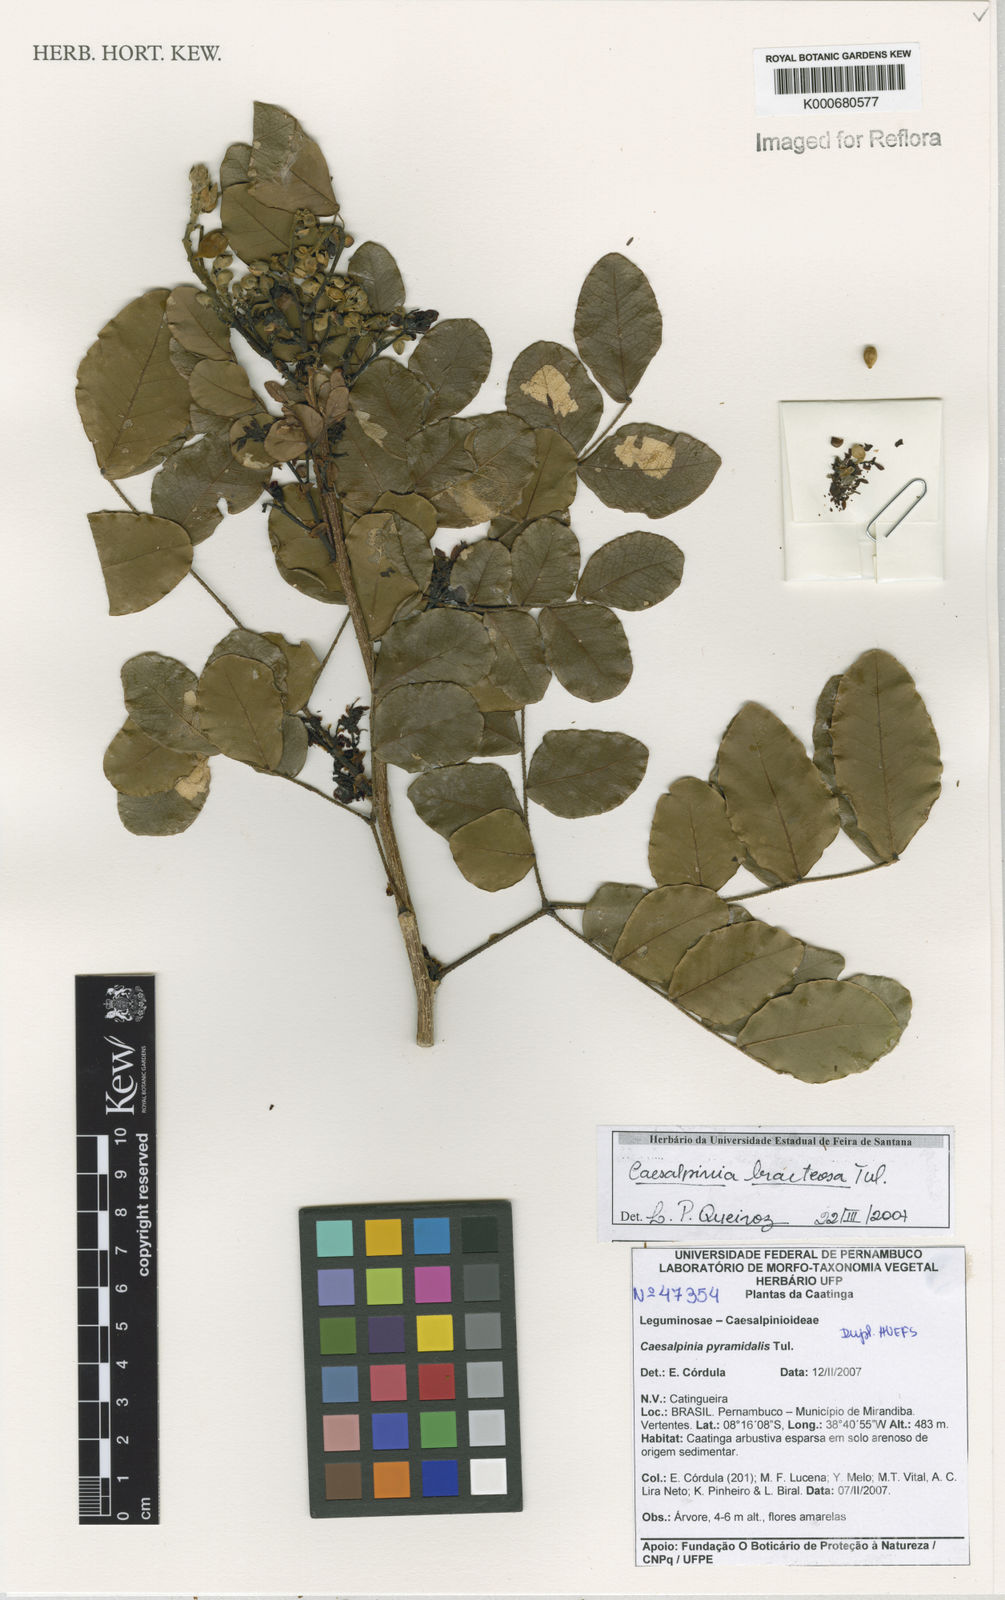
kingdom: Plantae
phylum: Tracheophyta
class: Magnoliopsida
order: Fabales
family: Fabaceae
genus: Cenostigma
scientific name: Cenostigma bracteosum
